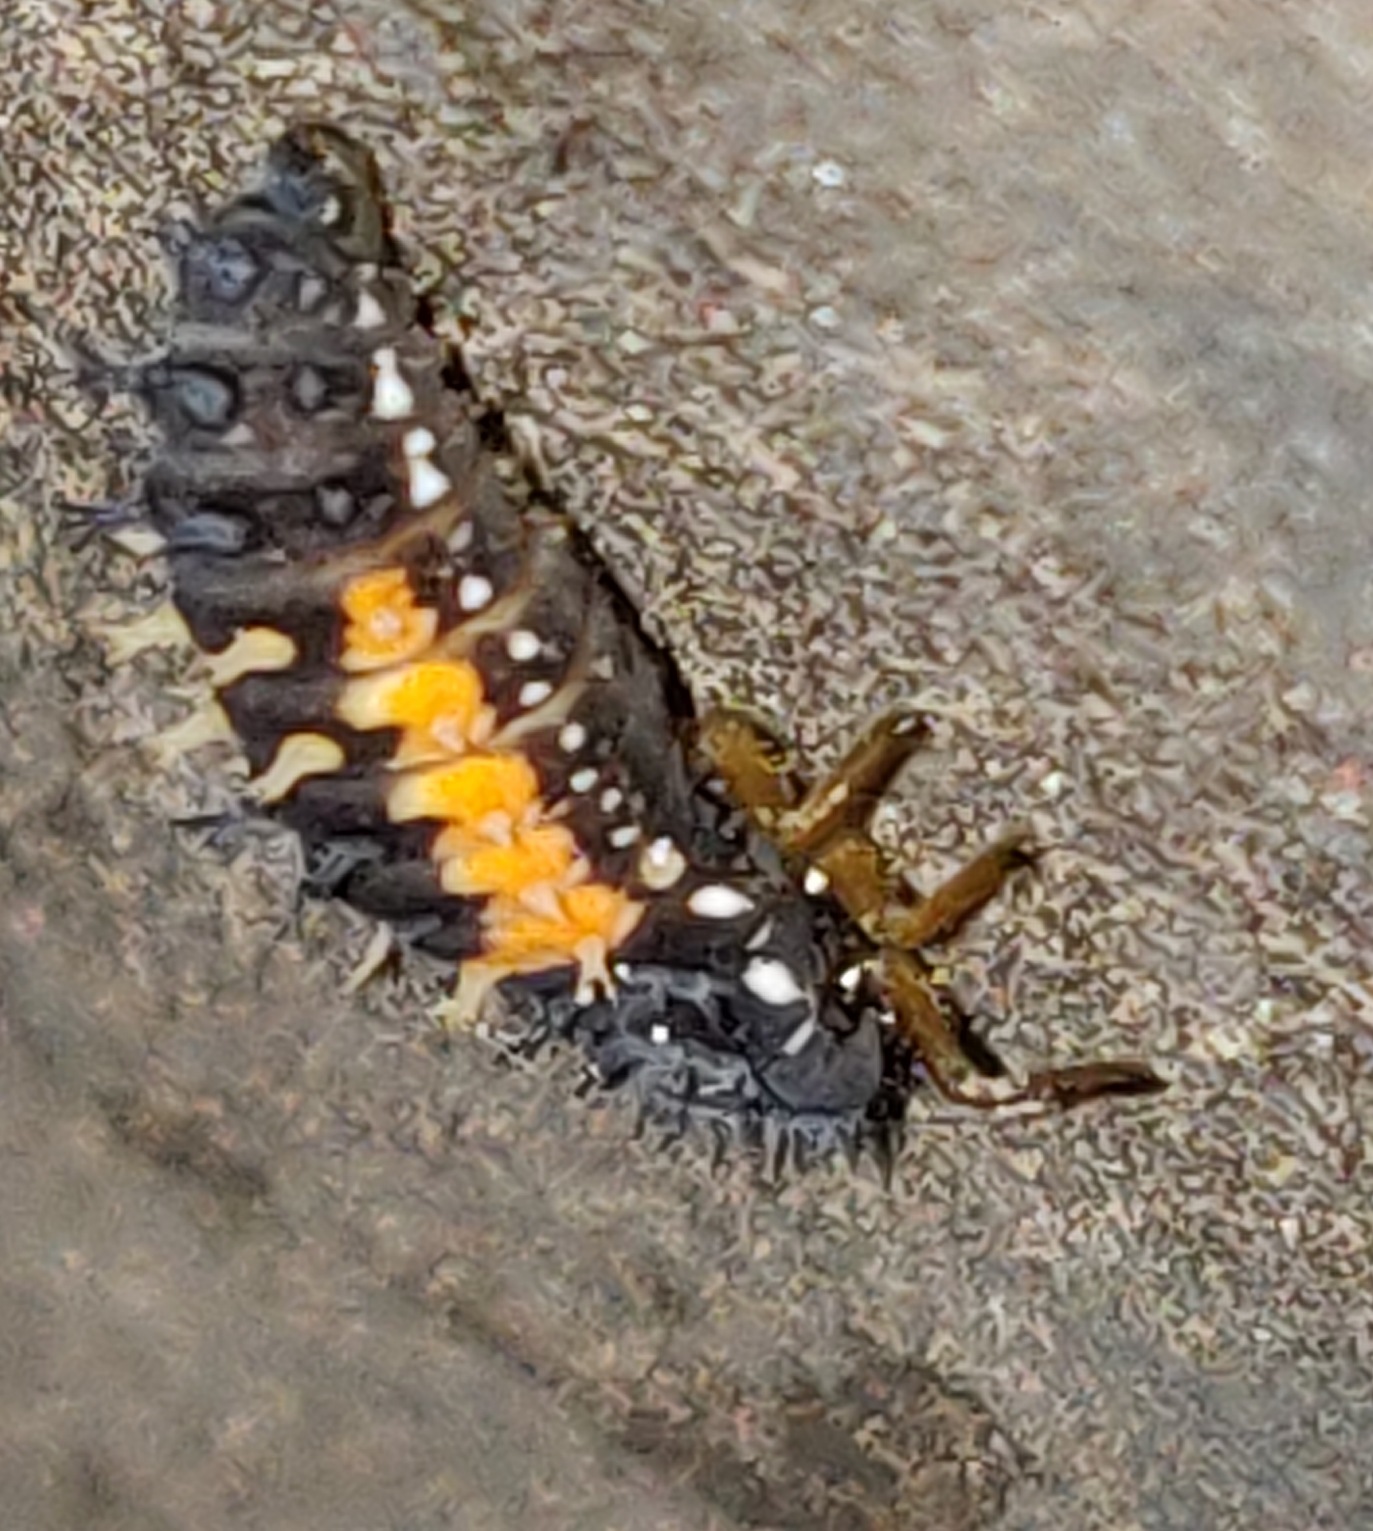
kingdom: Animalia
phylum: Arthropoda
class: Insecta
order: Coleoptera
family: Coccinellidae
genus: Harmonia
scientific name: Harmonia axyridis
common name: Harlekinmariehøne
